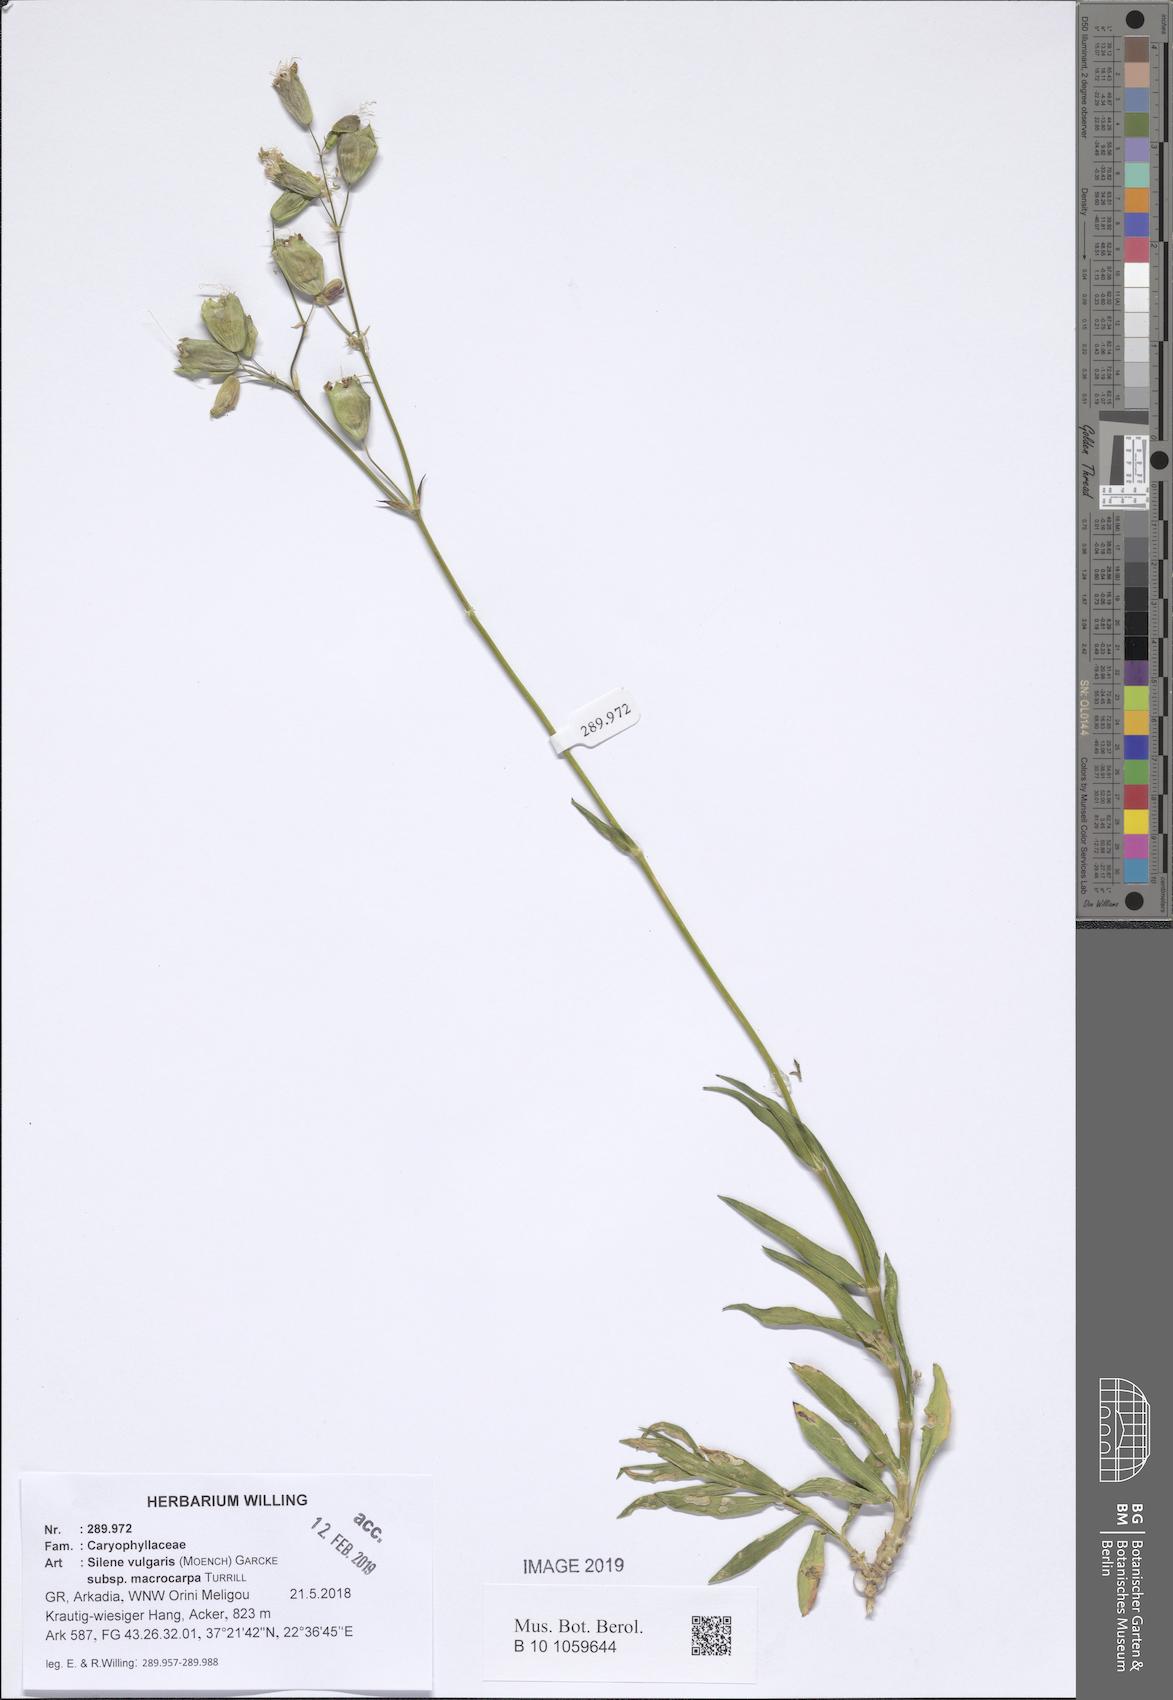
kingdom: Plantae
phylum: Tracheophyta
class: Magnoliopsida
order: Caryophyllales
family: Caryophyllaceae
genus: Silene
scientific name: Silene vulgaris
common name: Bladder campion
